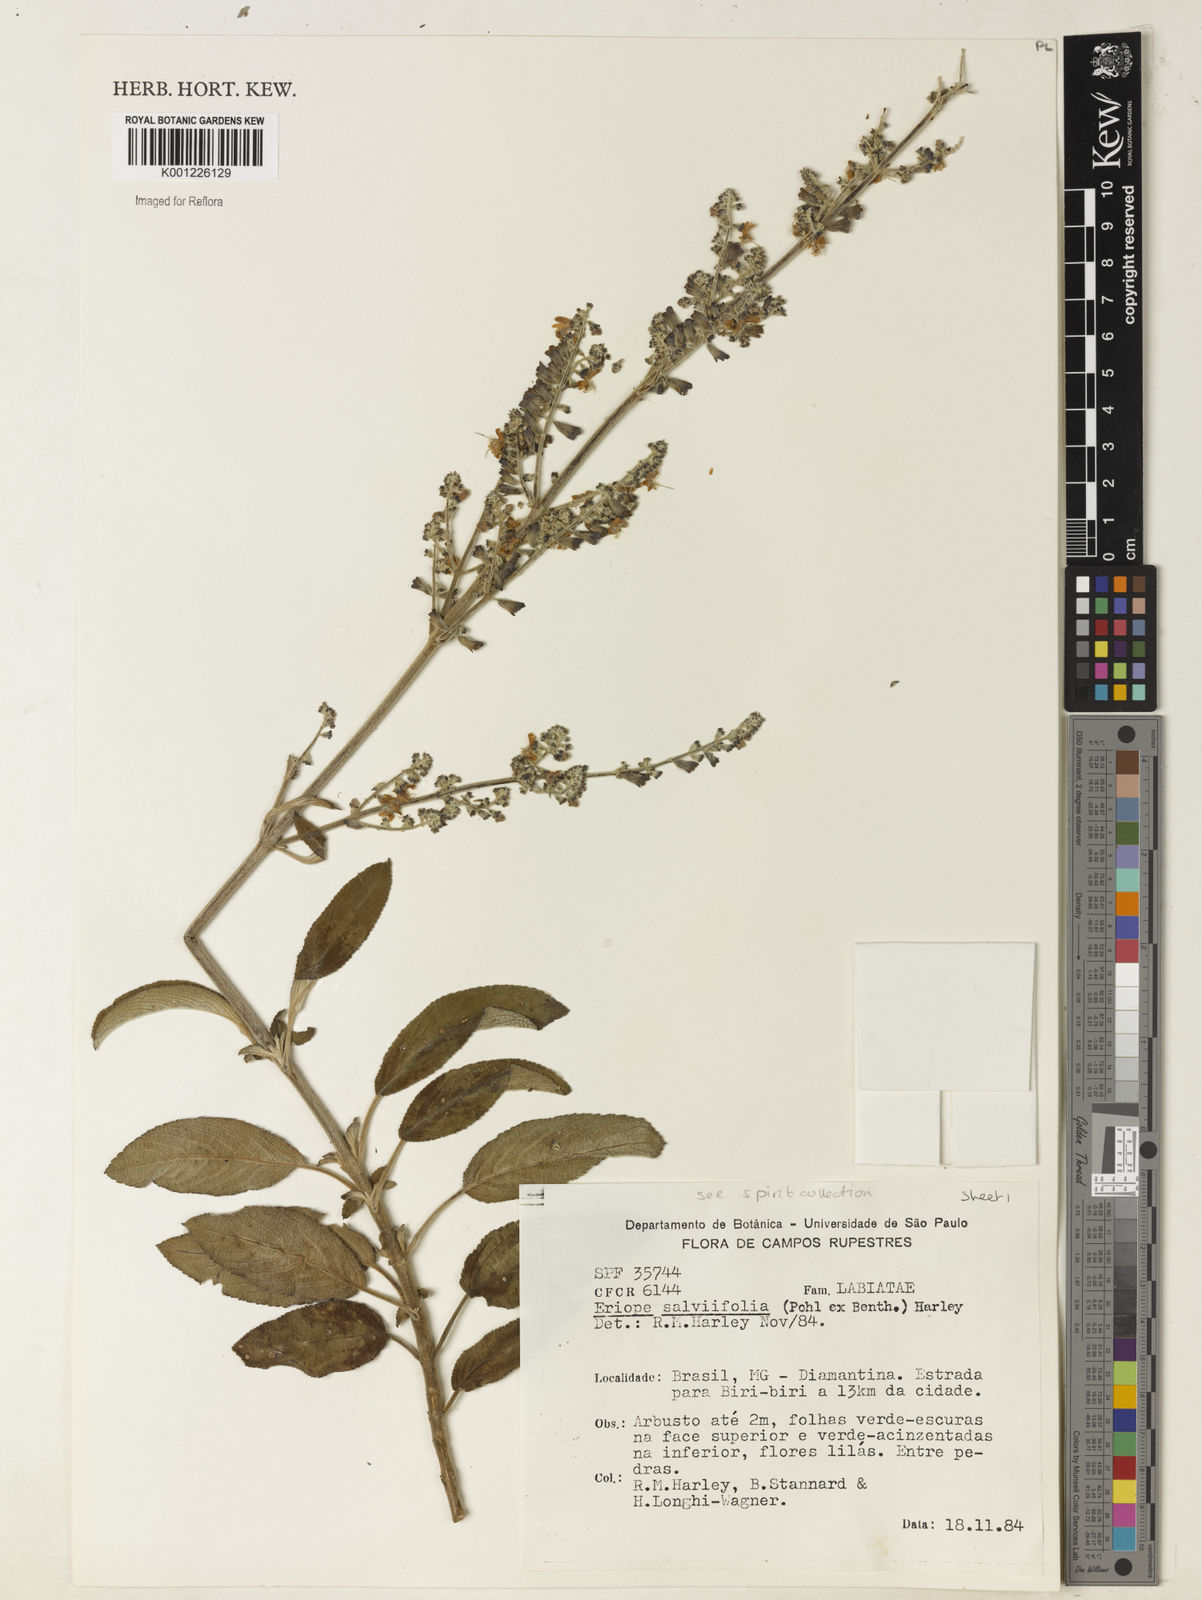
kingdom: Plantae
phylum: Tracheophyta
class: Magnoliopsida
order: Lamiales
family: Lamiaceae
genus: Eriope
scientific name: Eriope salviifolia
